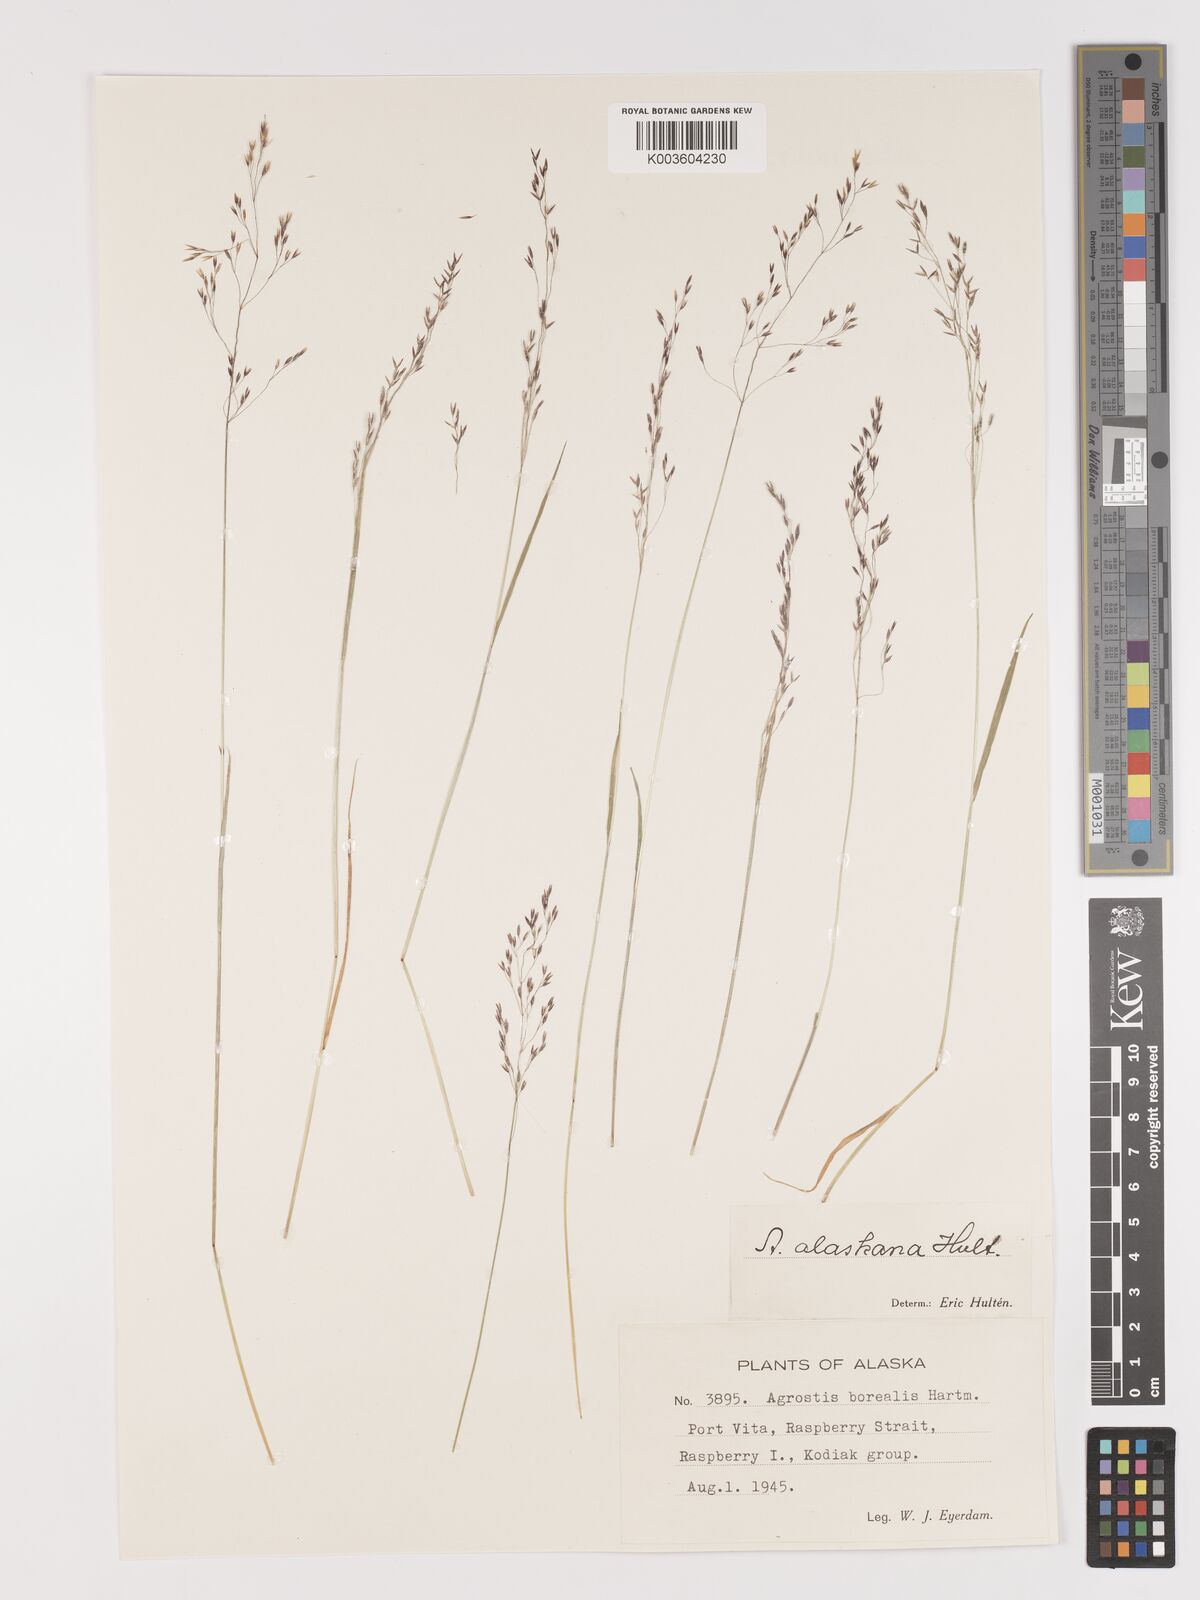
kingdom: Plantae
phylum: Tracheophyta
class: Liliopsida
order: Poales
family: Poaceae
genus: Agrostis
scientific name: Agrostis exarata
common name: Spike bent
